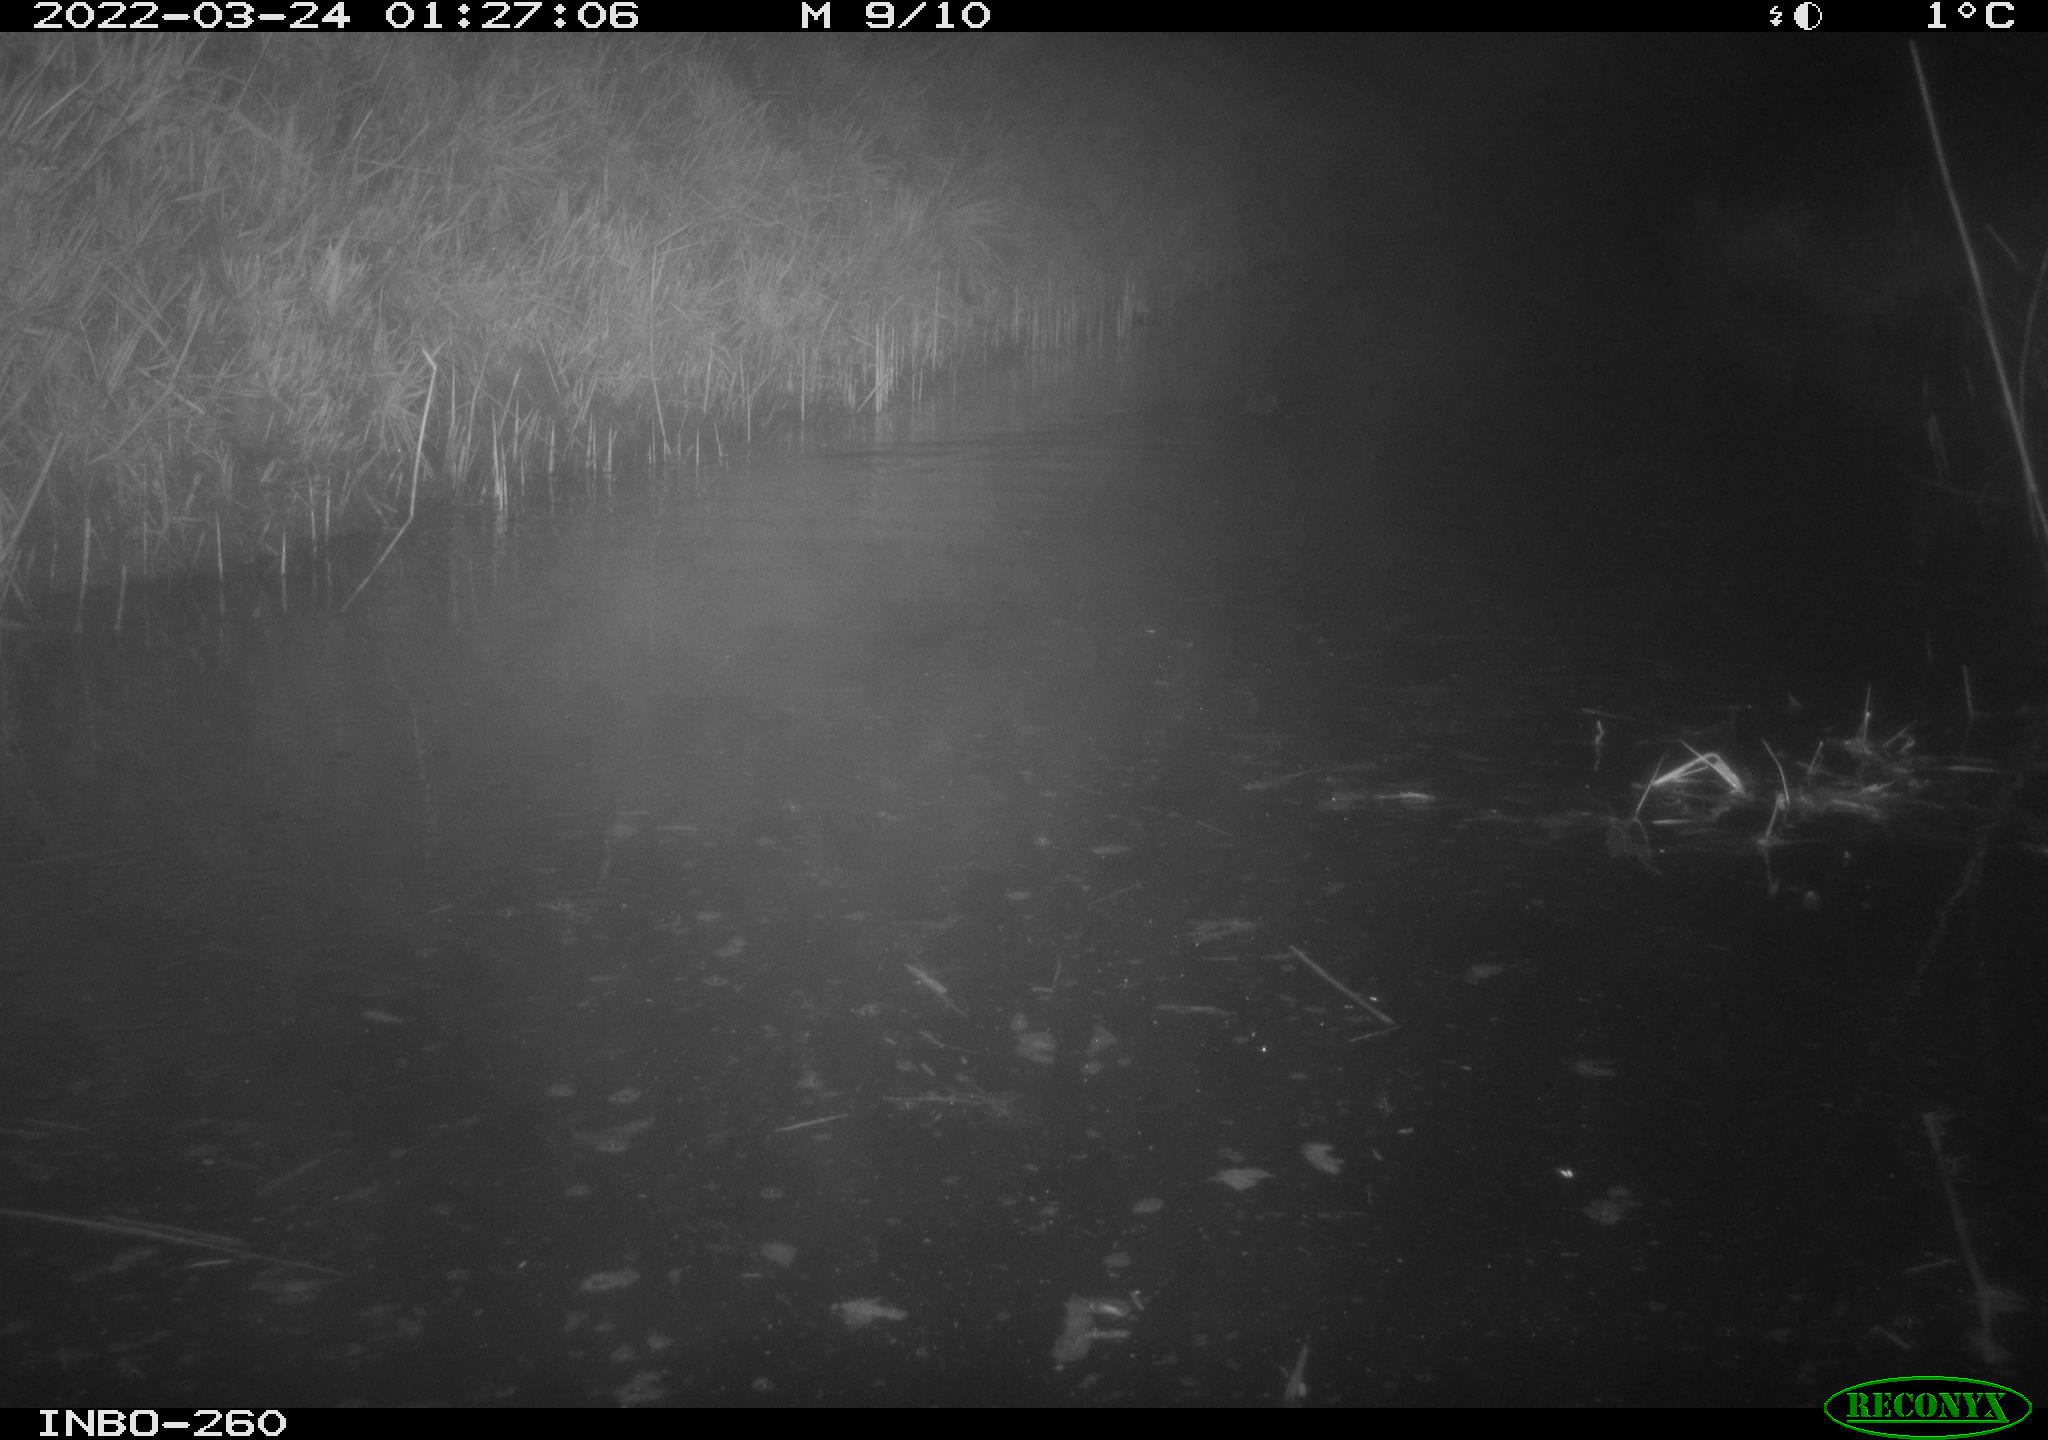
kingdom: Animalia
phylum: Chordata
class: Mammalia
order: Rodentia
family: Cricetidae
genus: Ondatra
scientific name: Ondatra zibethicus
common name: Muskrat
